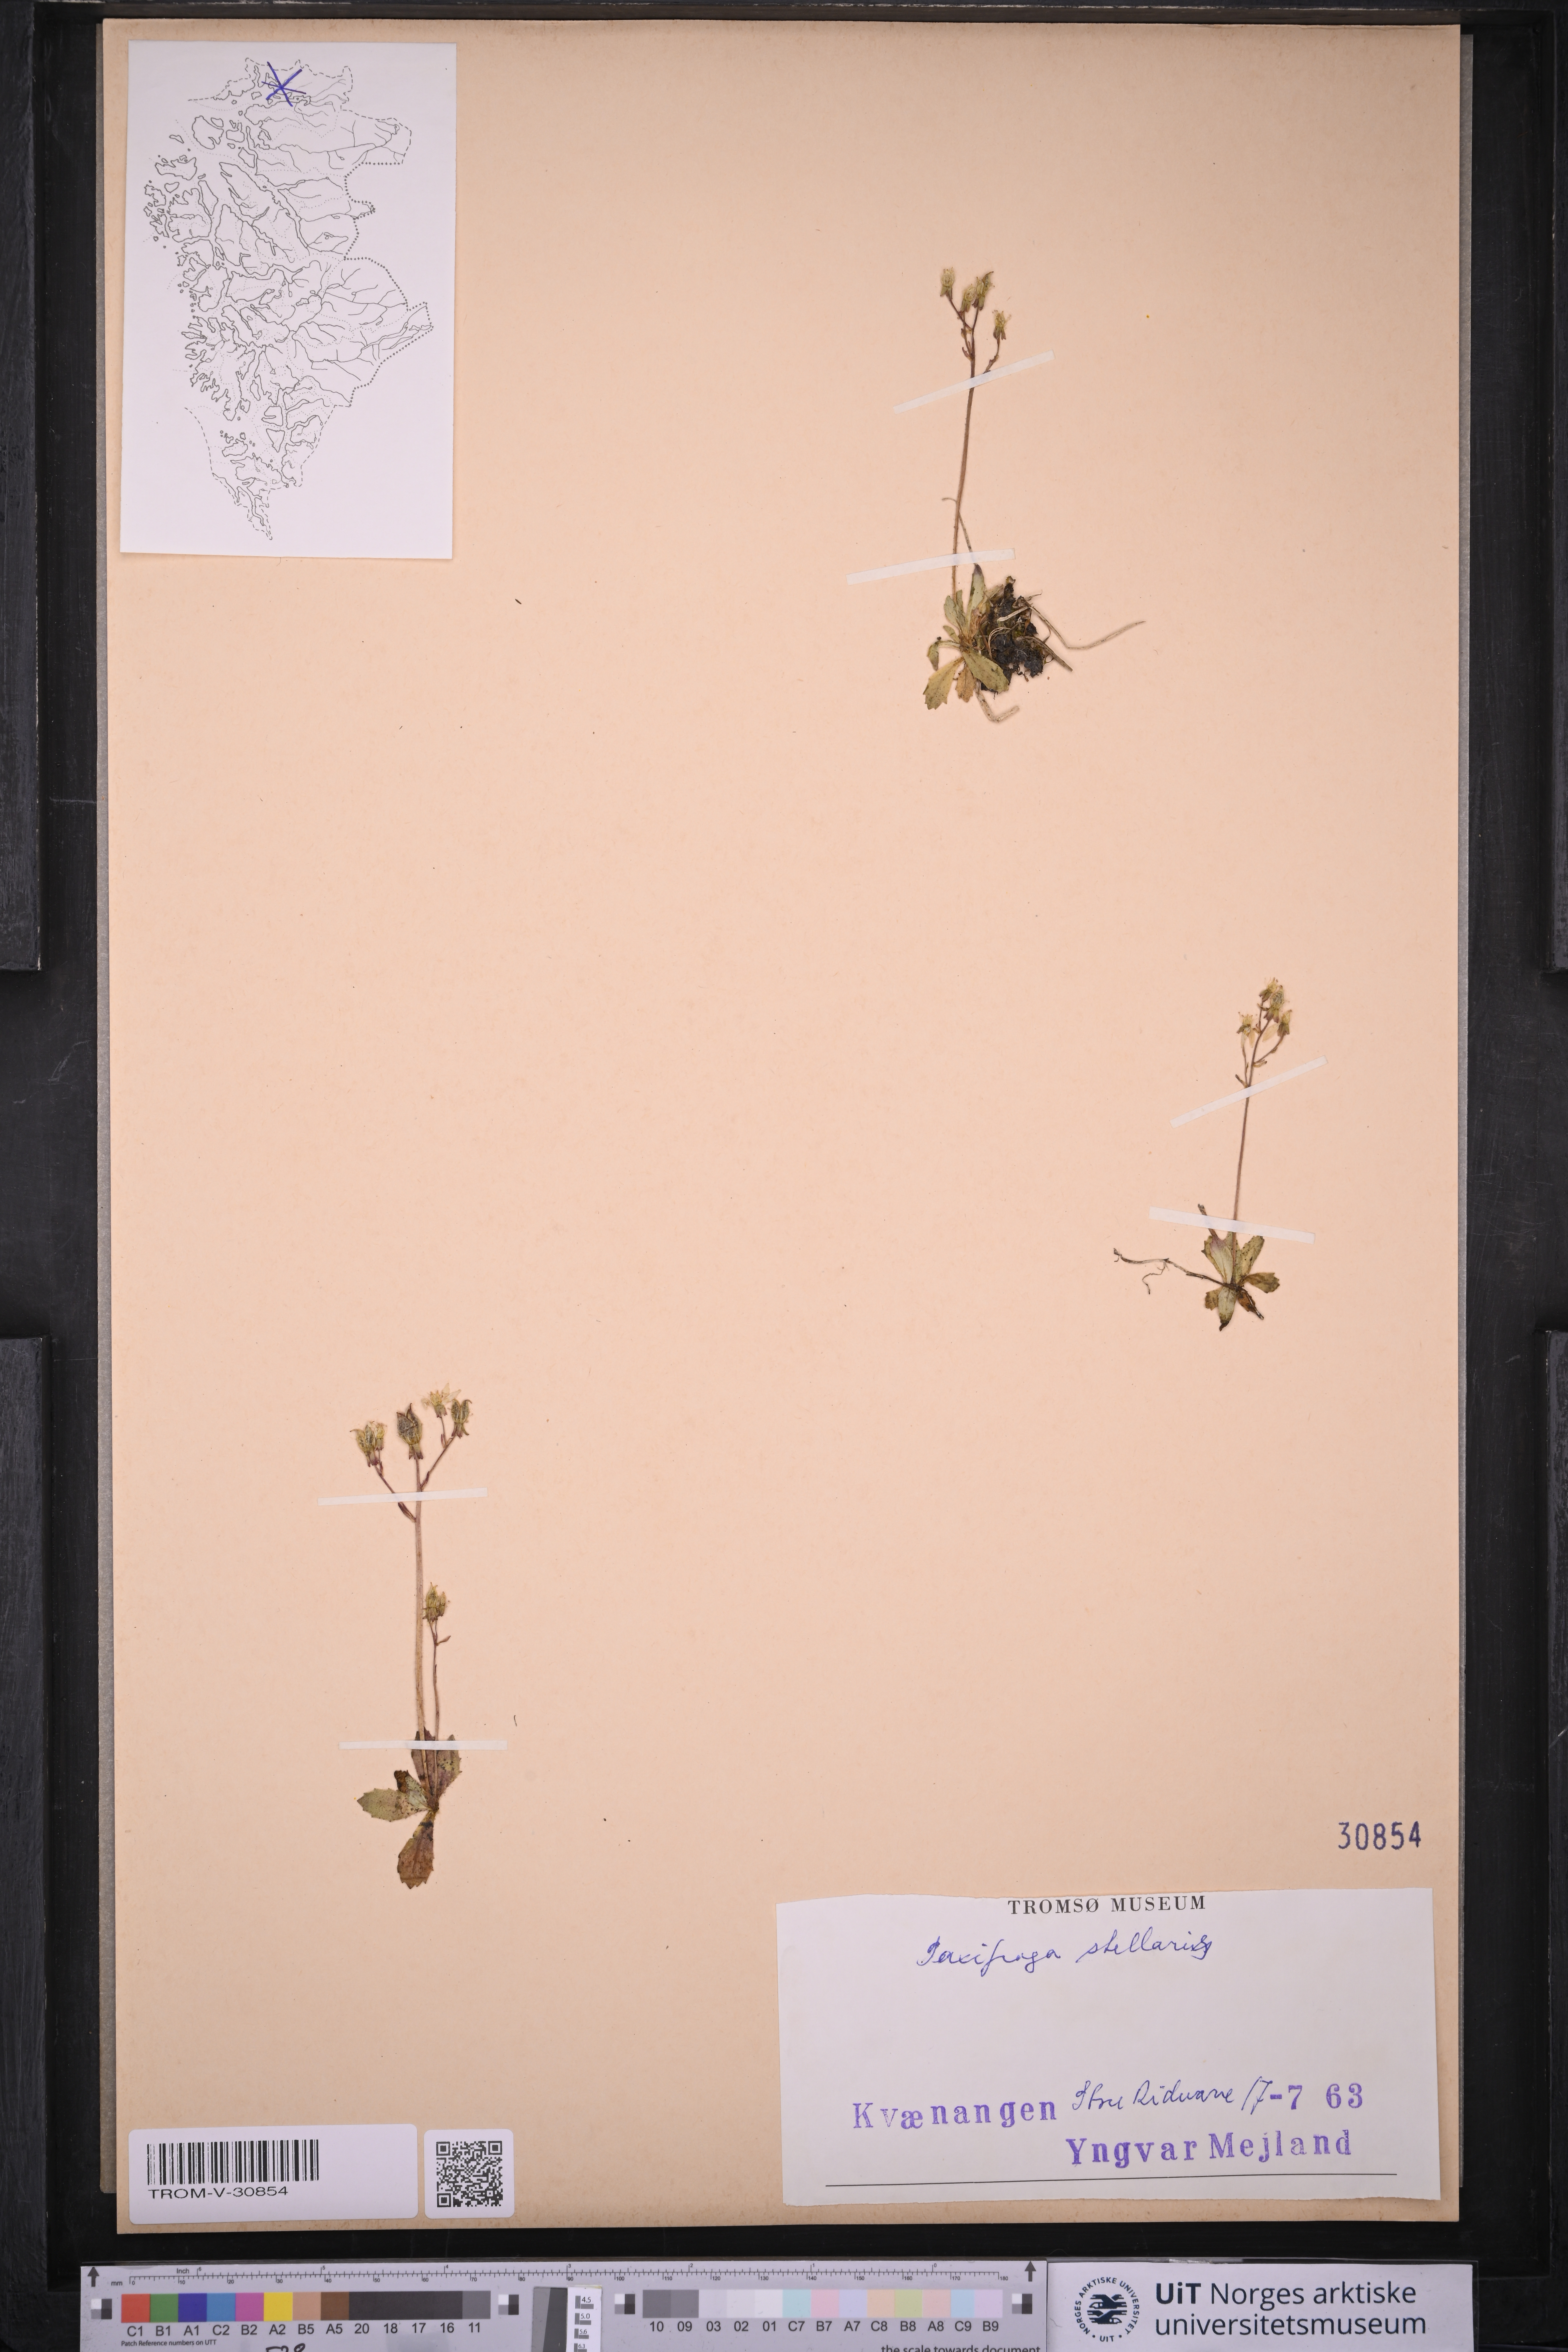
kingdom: Plantae
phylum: Tracheophyta
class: Magnoliopsida
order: Saxifragales
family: Saxifragaceae
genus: Micranthes
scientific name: Micranthes stellaris
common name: Starry saxifrage
